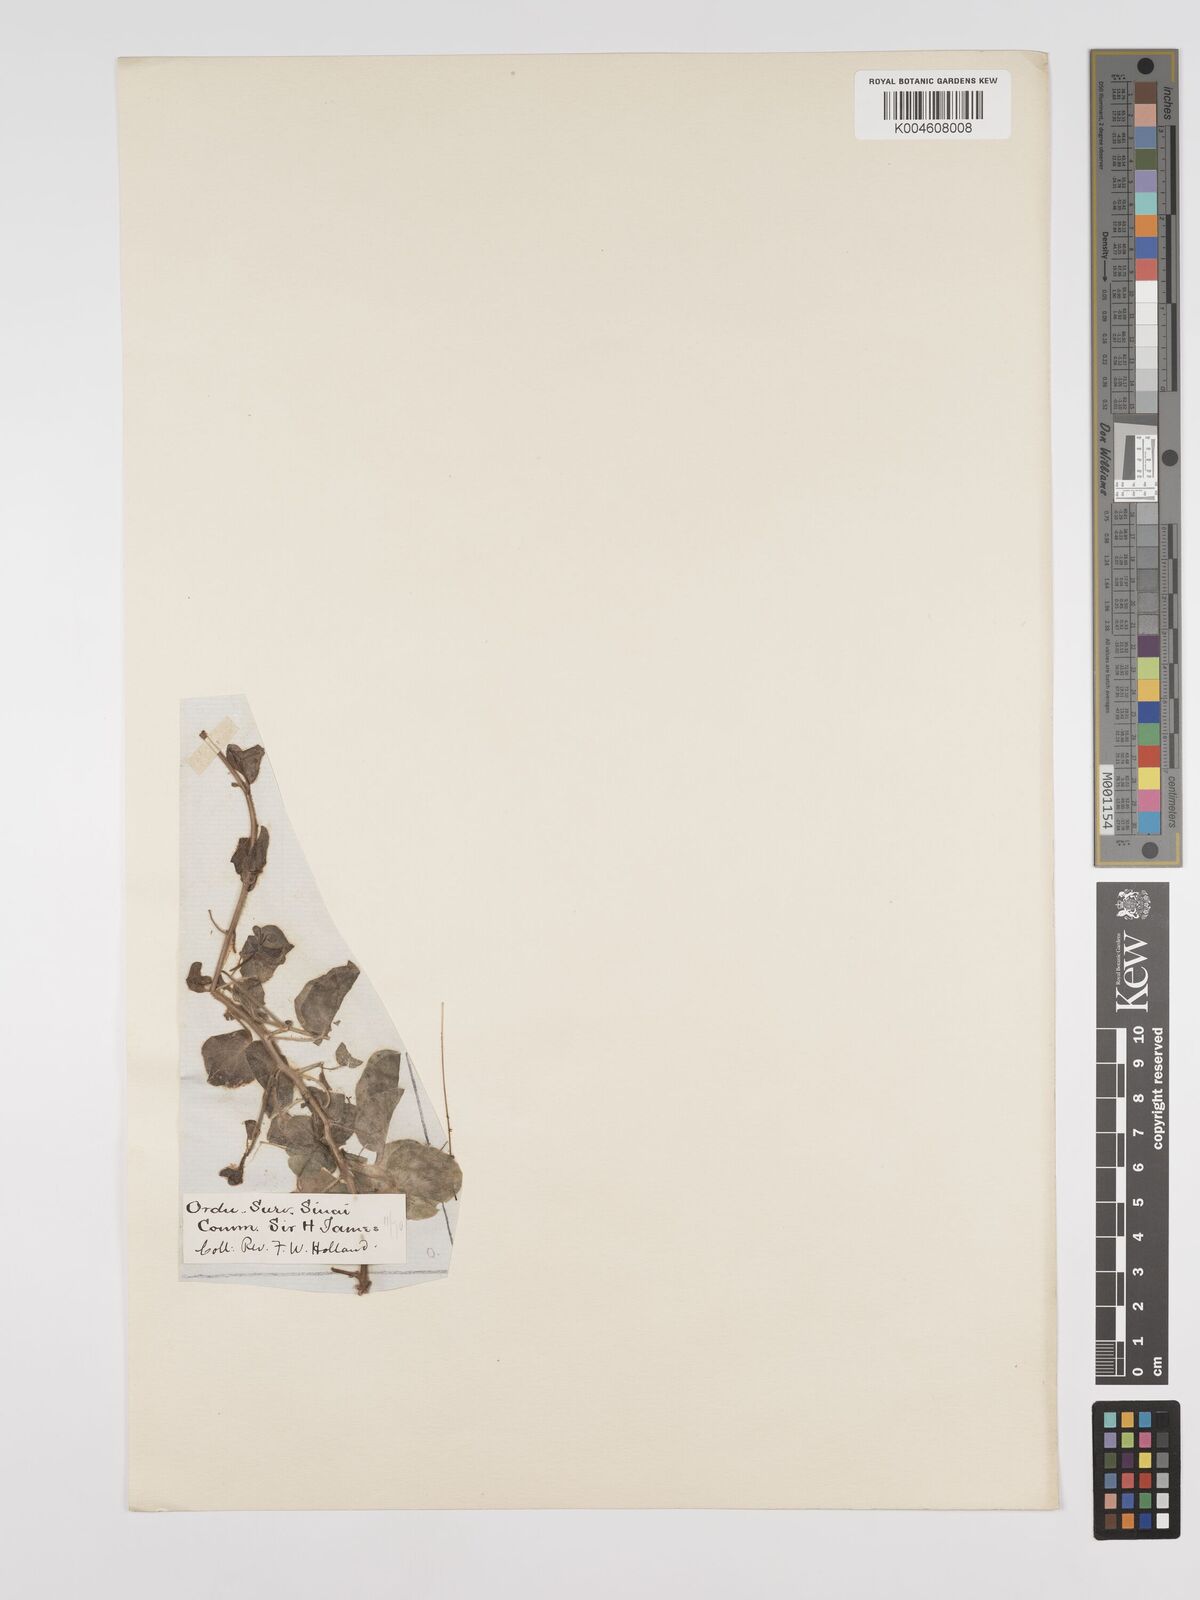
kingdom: Plantae
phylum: Tracheophyta
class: Magnoliopsida
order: Lamiales
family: Plantaginaceae
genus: Kickxia
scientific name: Kickxia spuria
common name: Round-leaved fluellen
